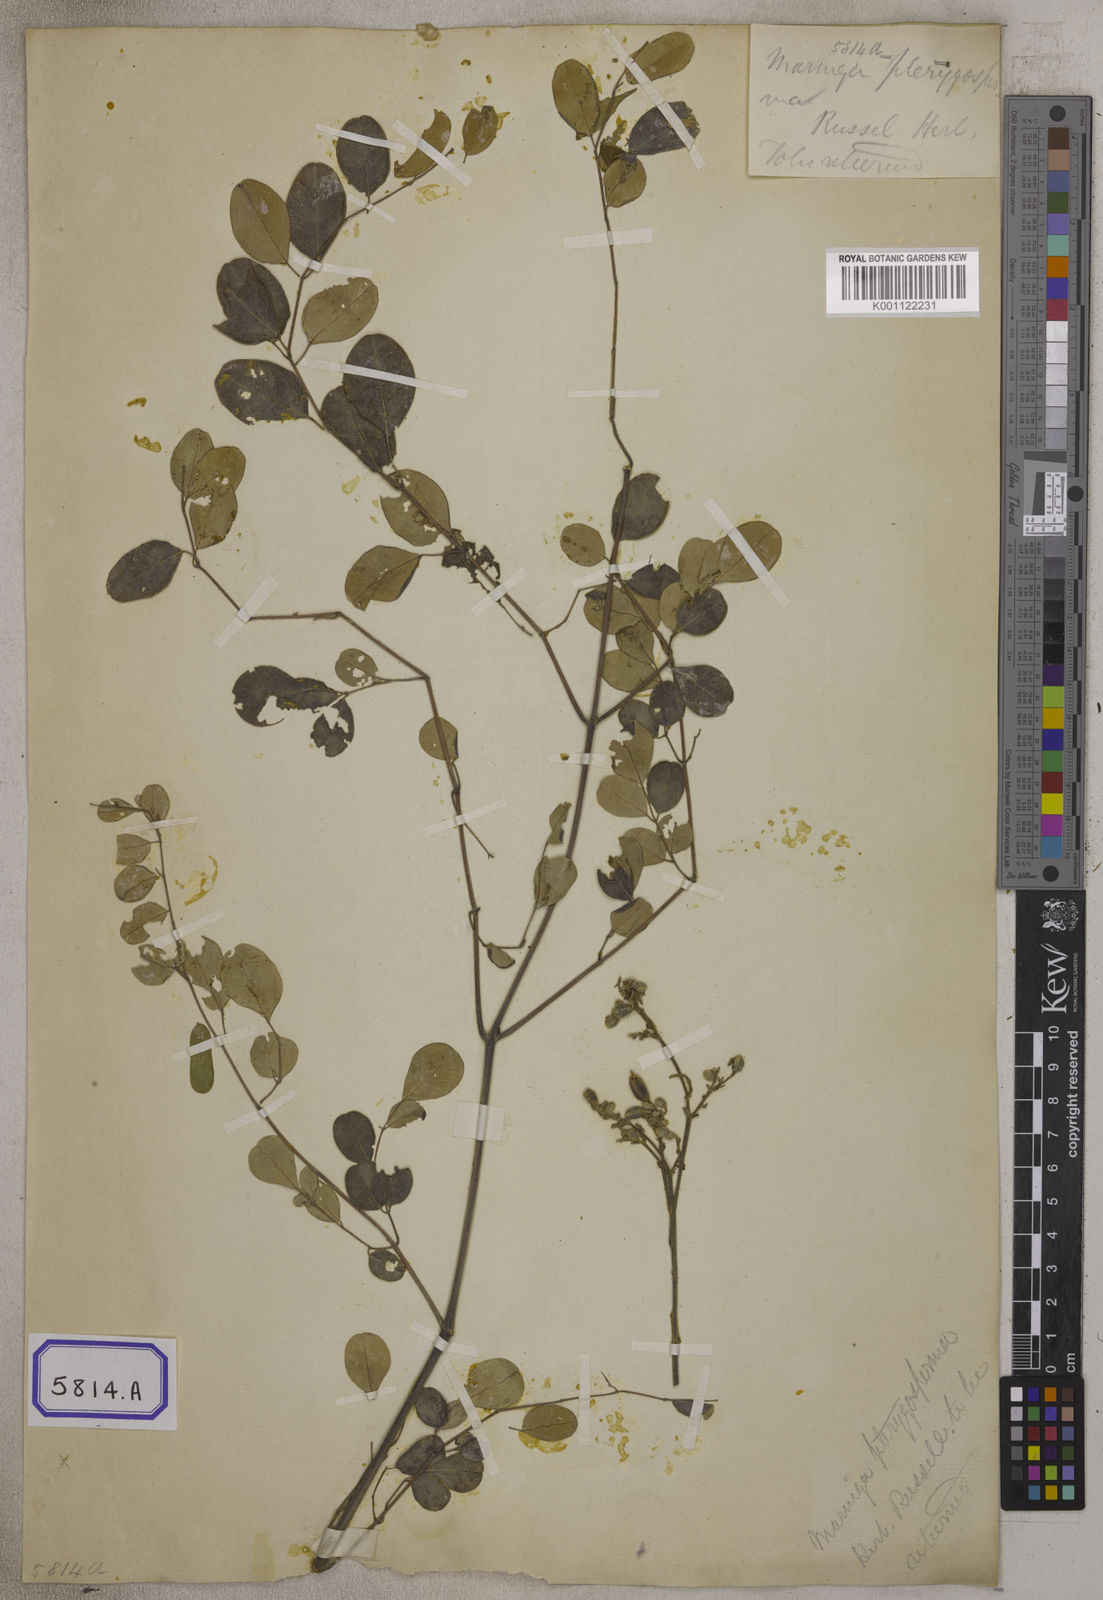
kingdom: Plantae
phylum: Tracheophyta
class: Magnoliopsida
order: Brassicales
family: Moringaceae
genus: Moringa
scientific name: Moringa oleifera
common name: Horseradish-tree
